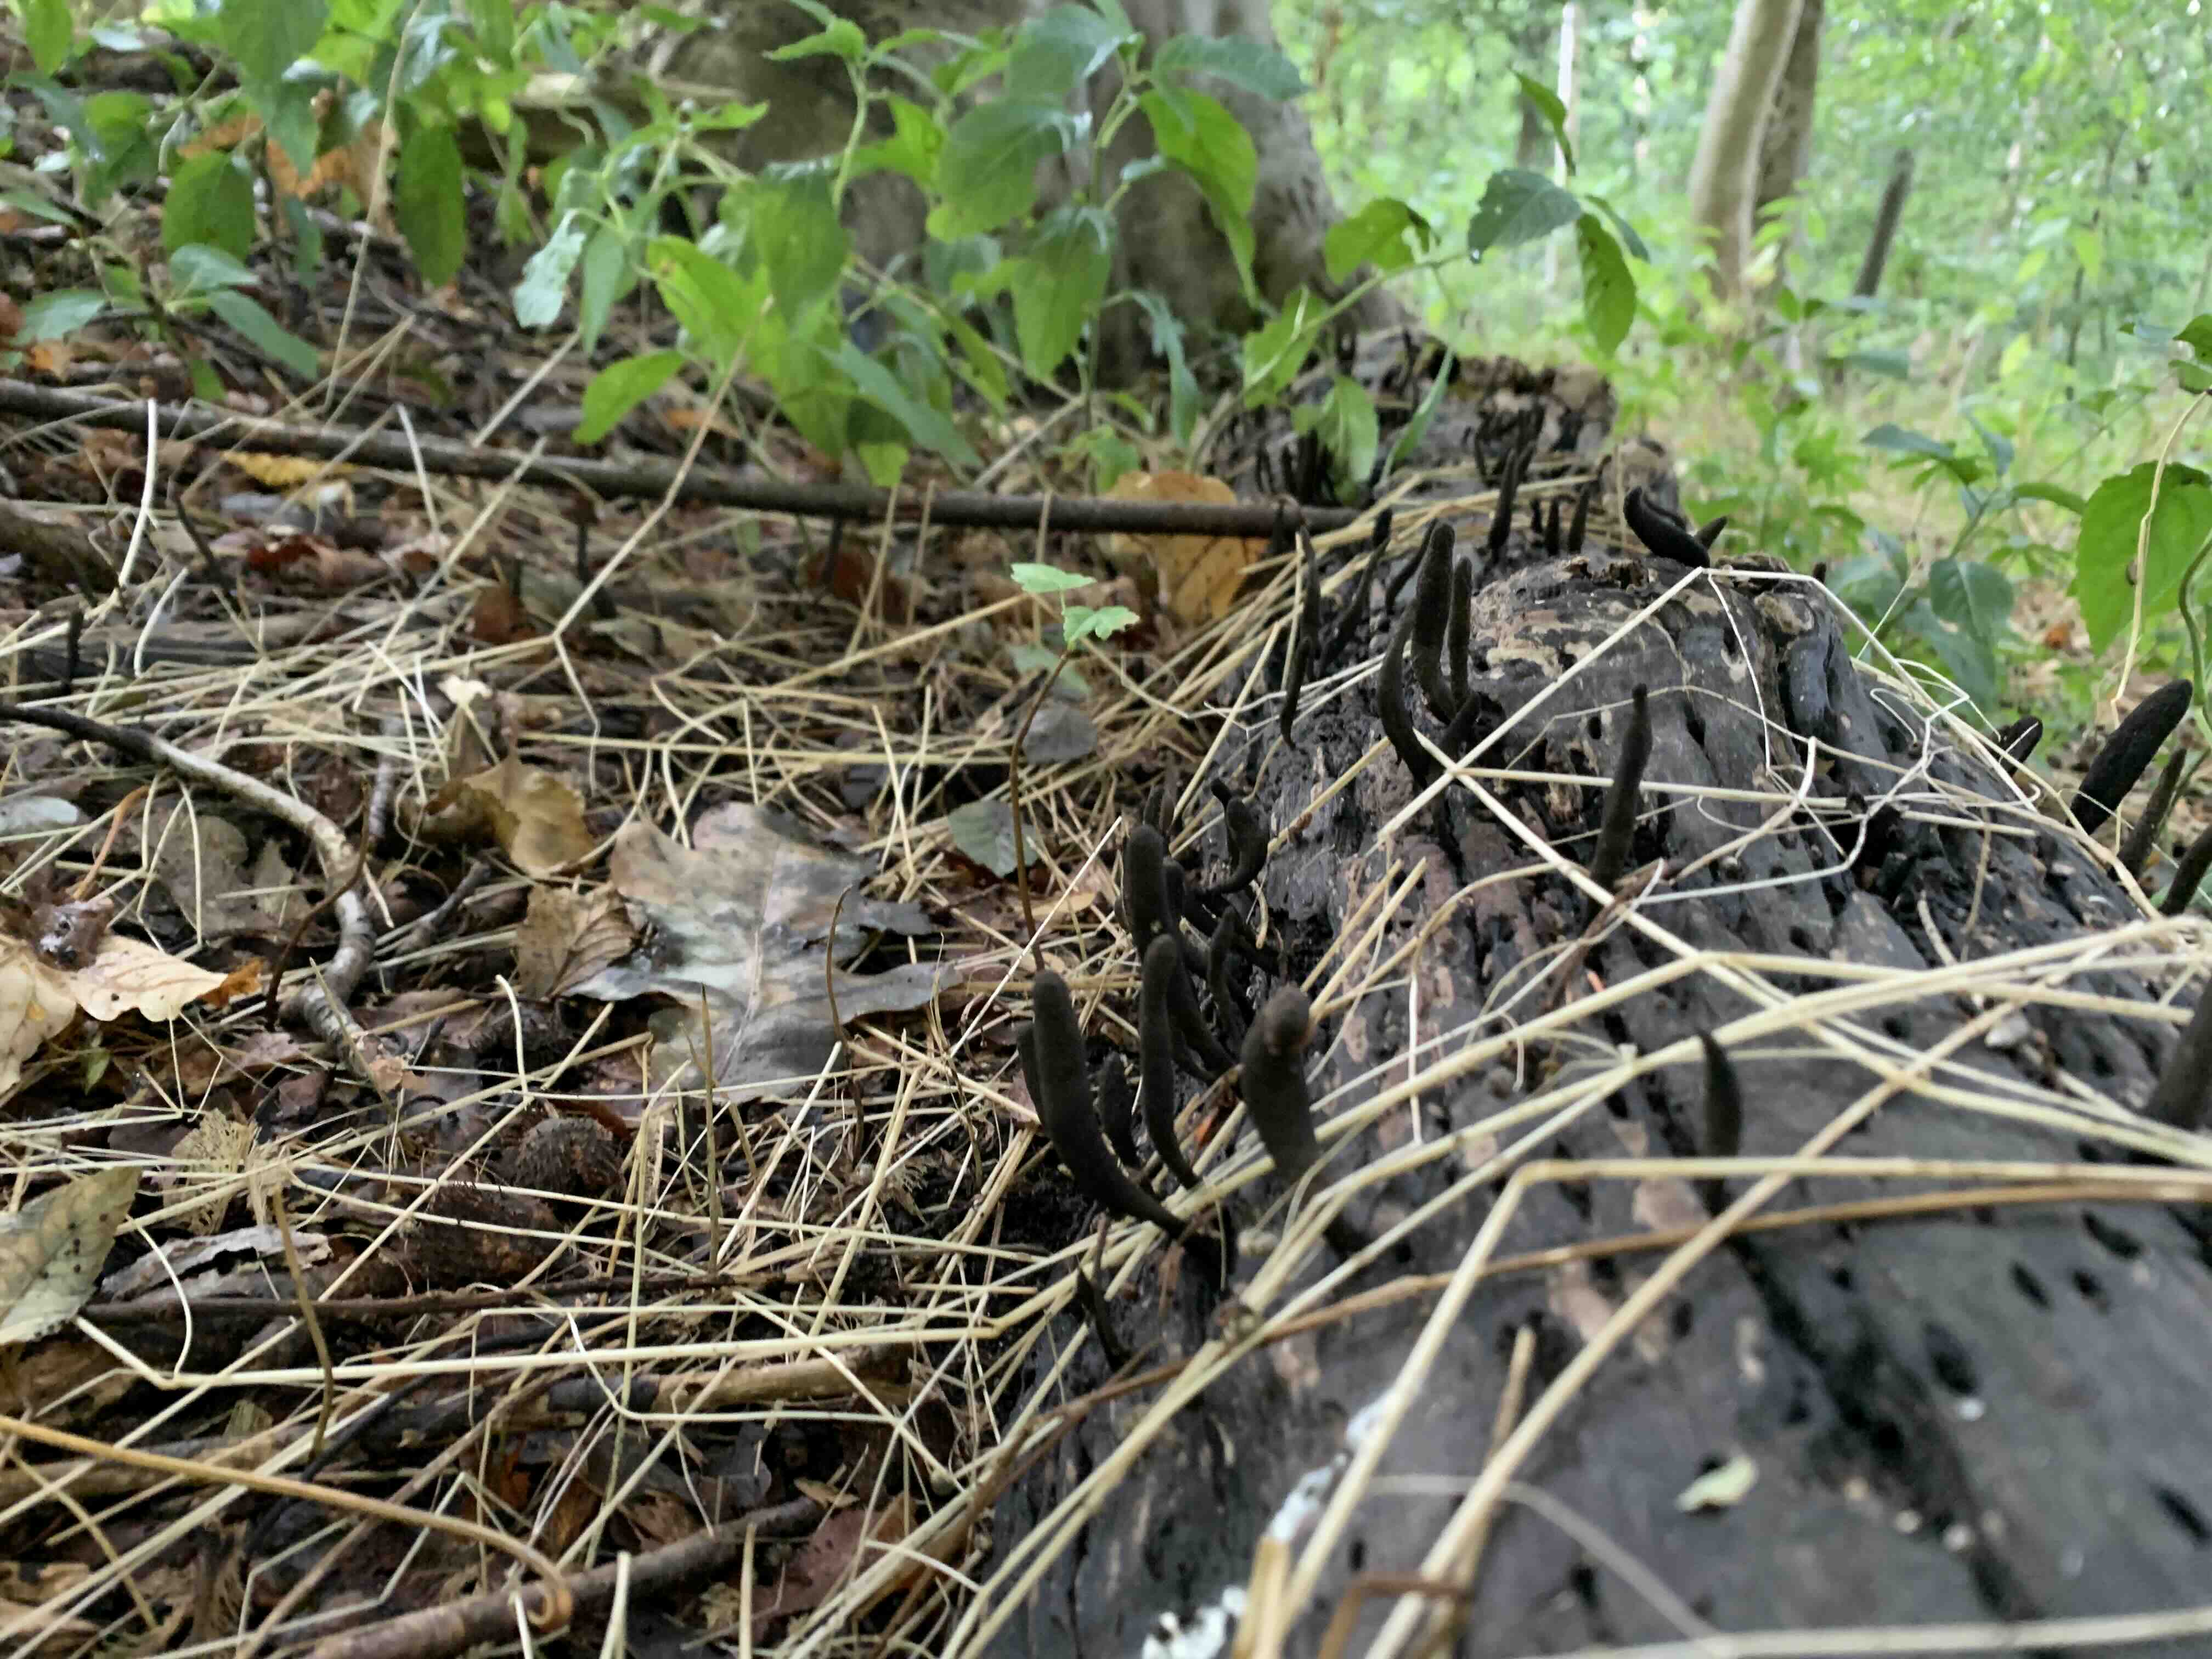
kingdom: Fungi
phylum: Ascomycota
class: Sordariomycetes
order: Xylariales
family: Xylariaceae
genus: Xylaria
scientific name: Xylaria longipes
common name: slank stødsvamp
